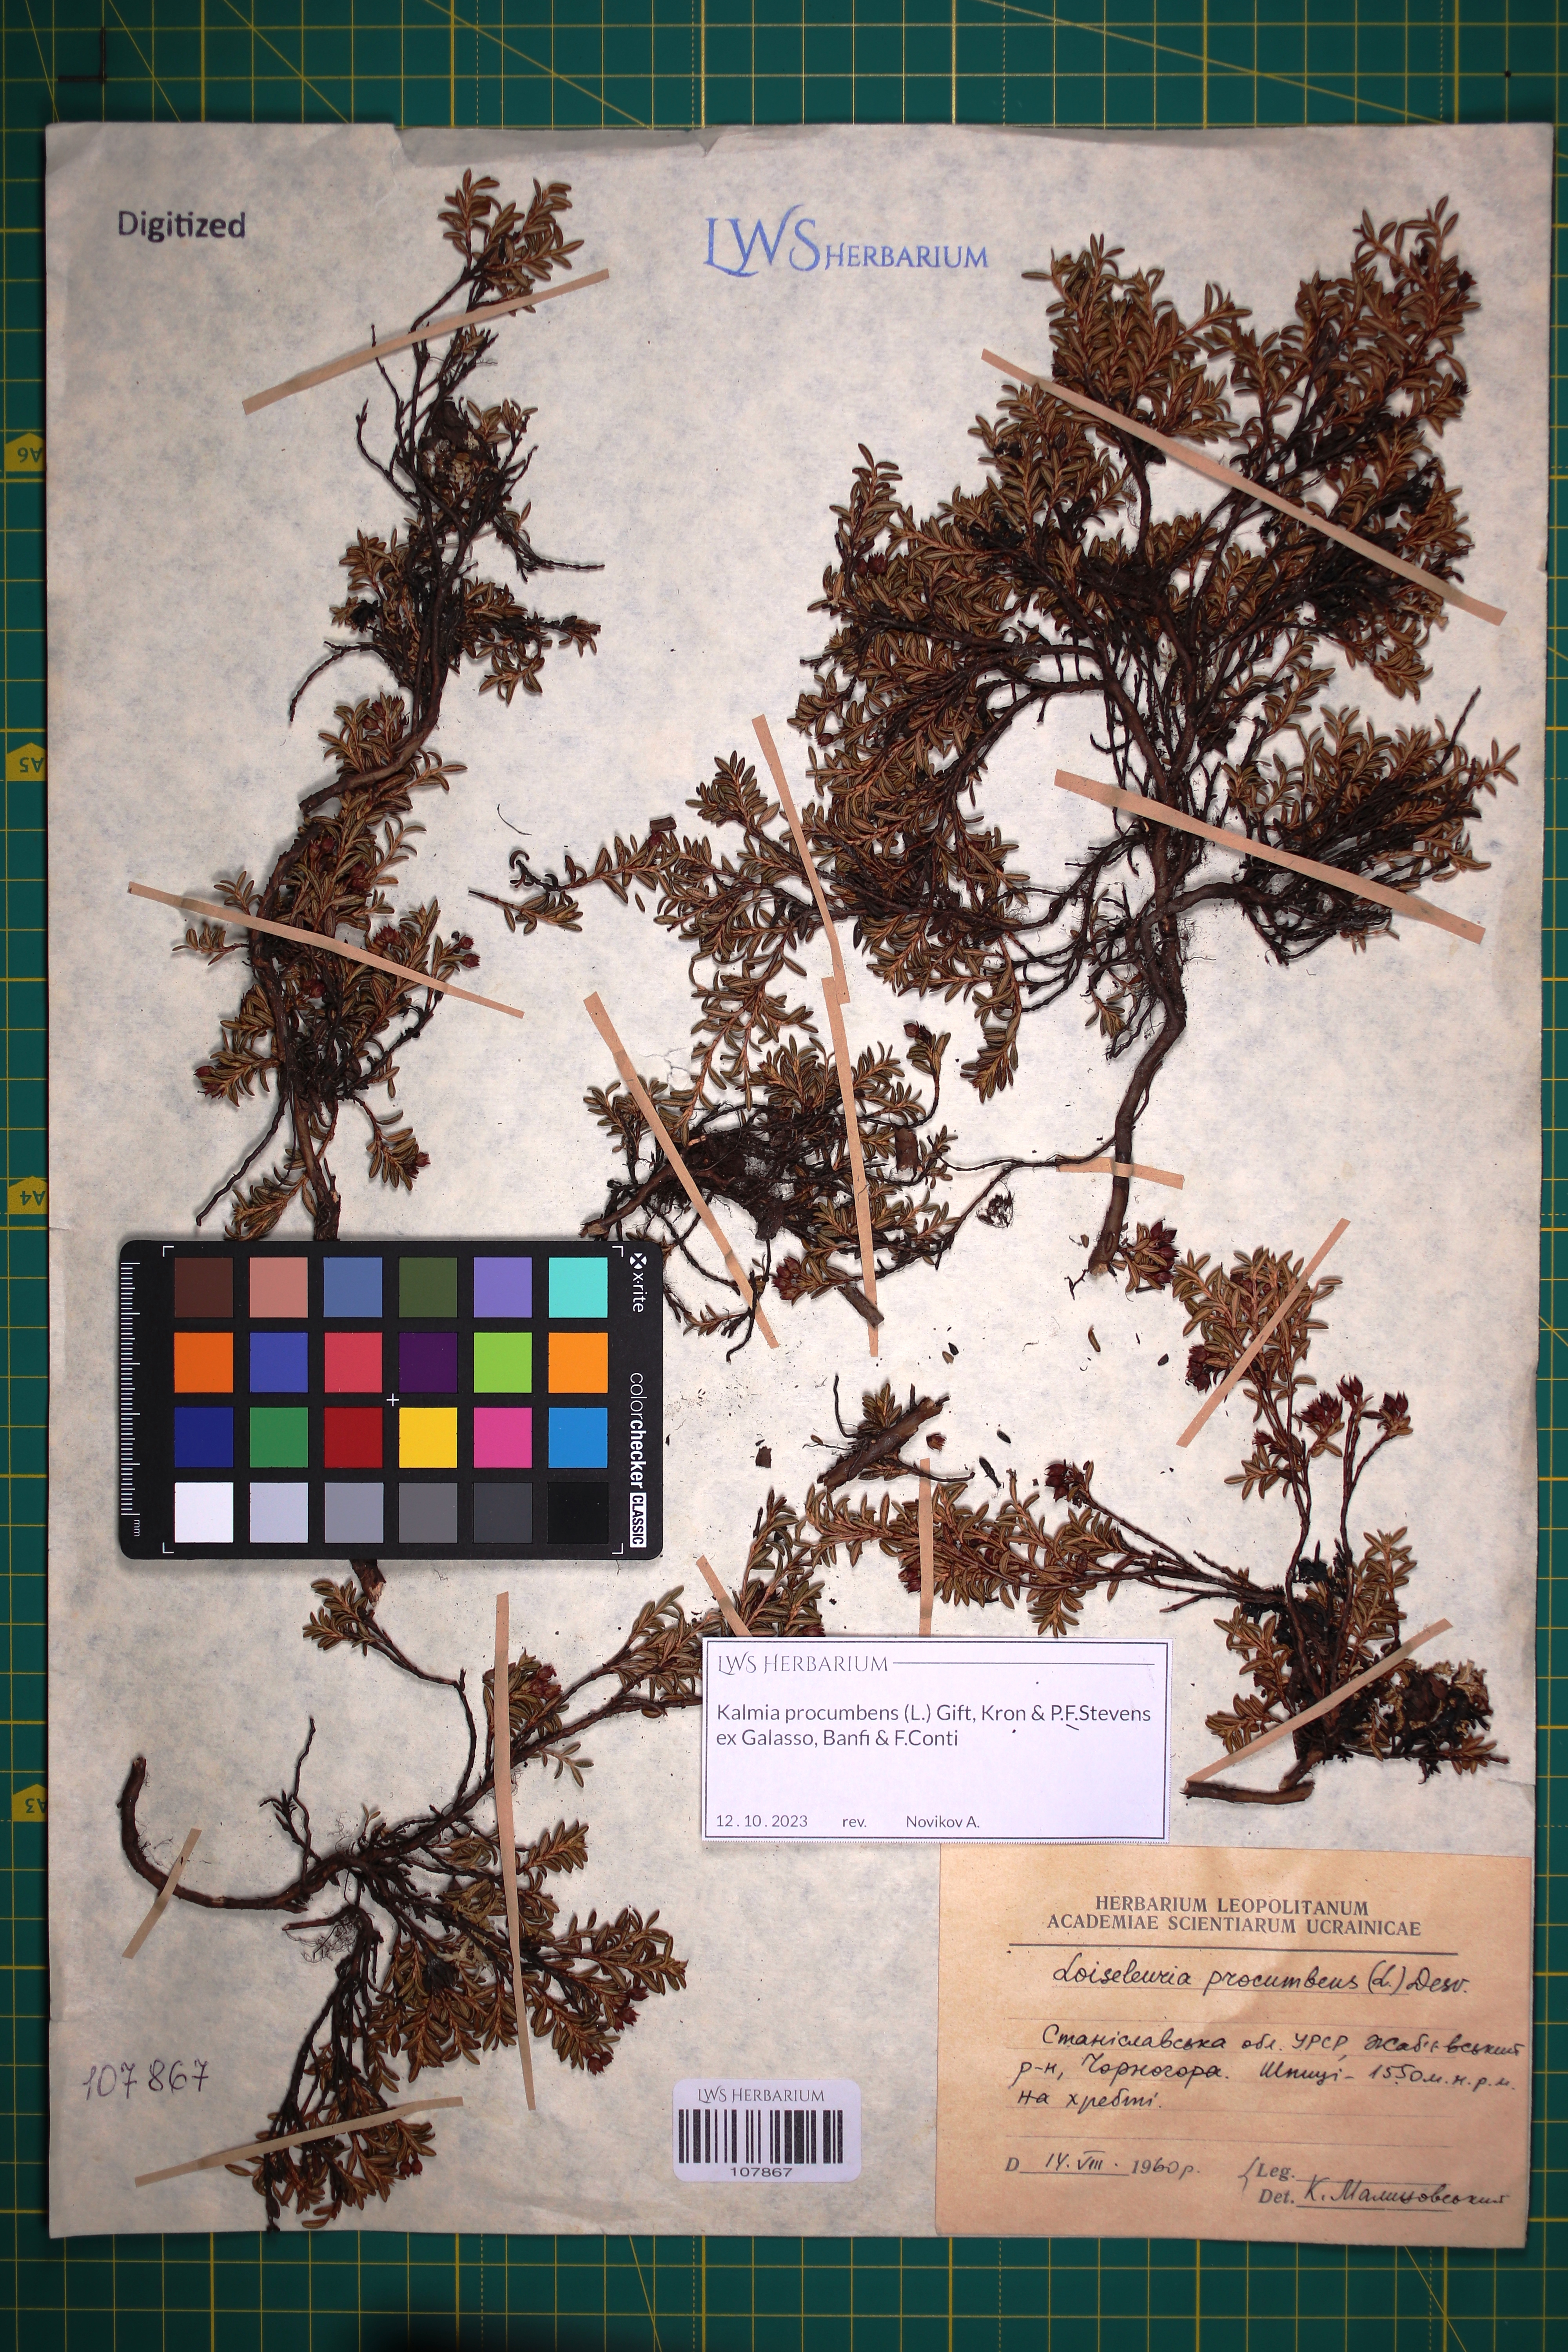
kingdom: Plantae
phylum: Tracheophyta
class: Magnoliopsida
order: Ericales
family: Ericaceae
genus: Kalmia
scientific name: Kalmia procumbens
